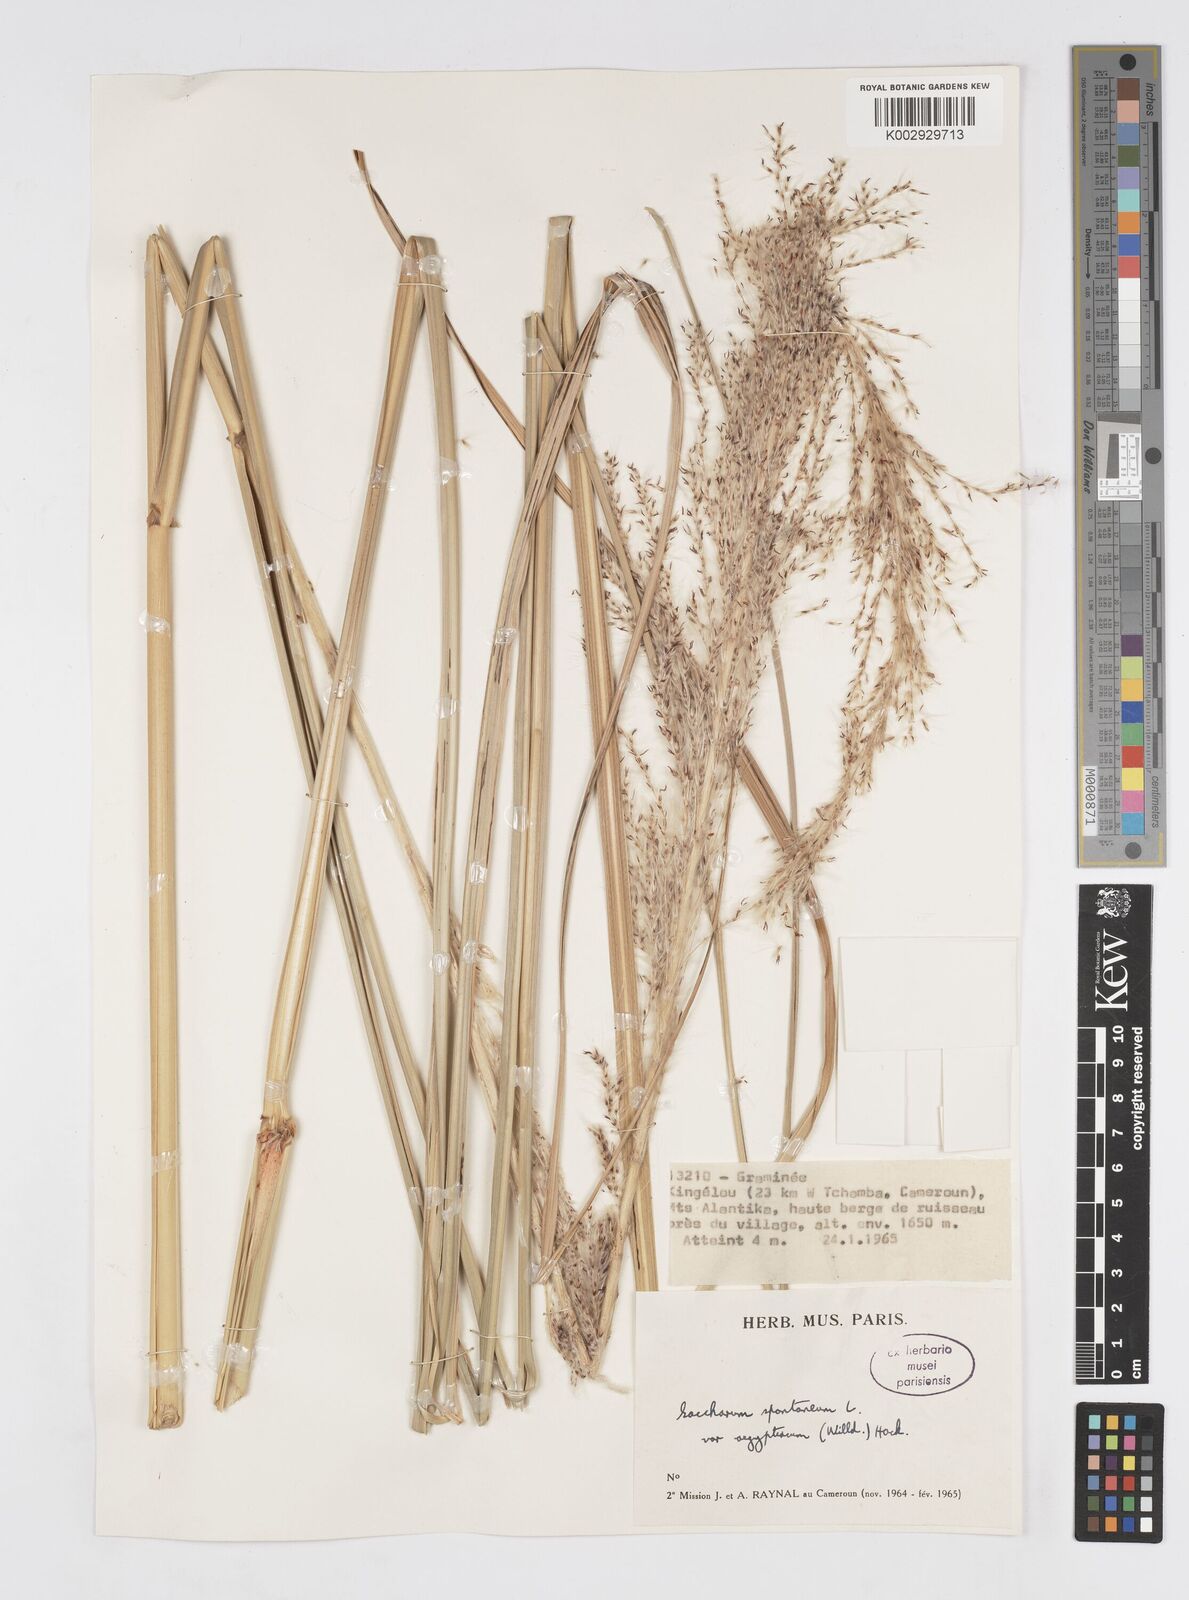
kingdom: Plantae
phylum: Tracheophyta
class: Liliopsida
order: Poales
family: Poaceae
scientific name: Poaceae
